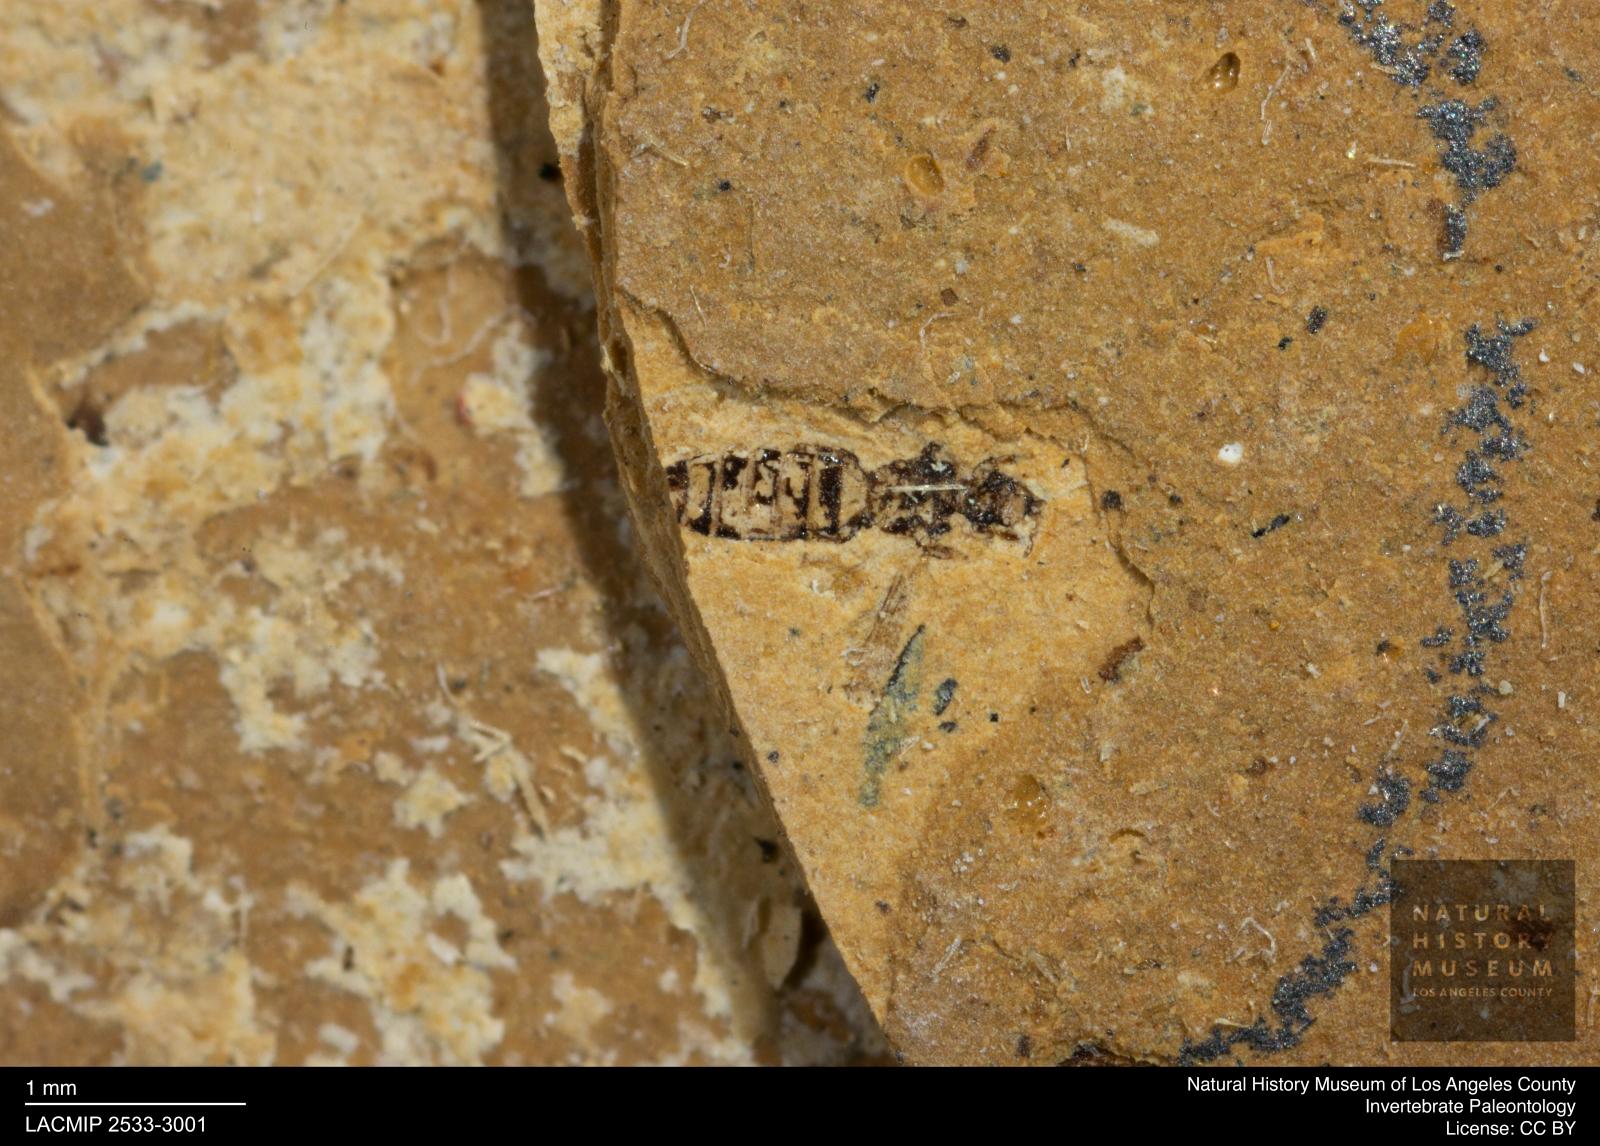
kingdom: Animalia
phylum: Arthropoda
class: Insecta
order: Thysanoptera
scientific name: Thysanoptera
